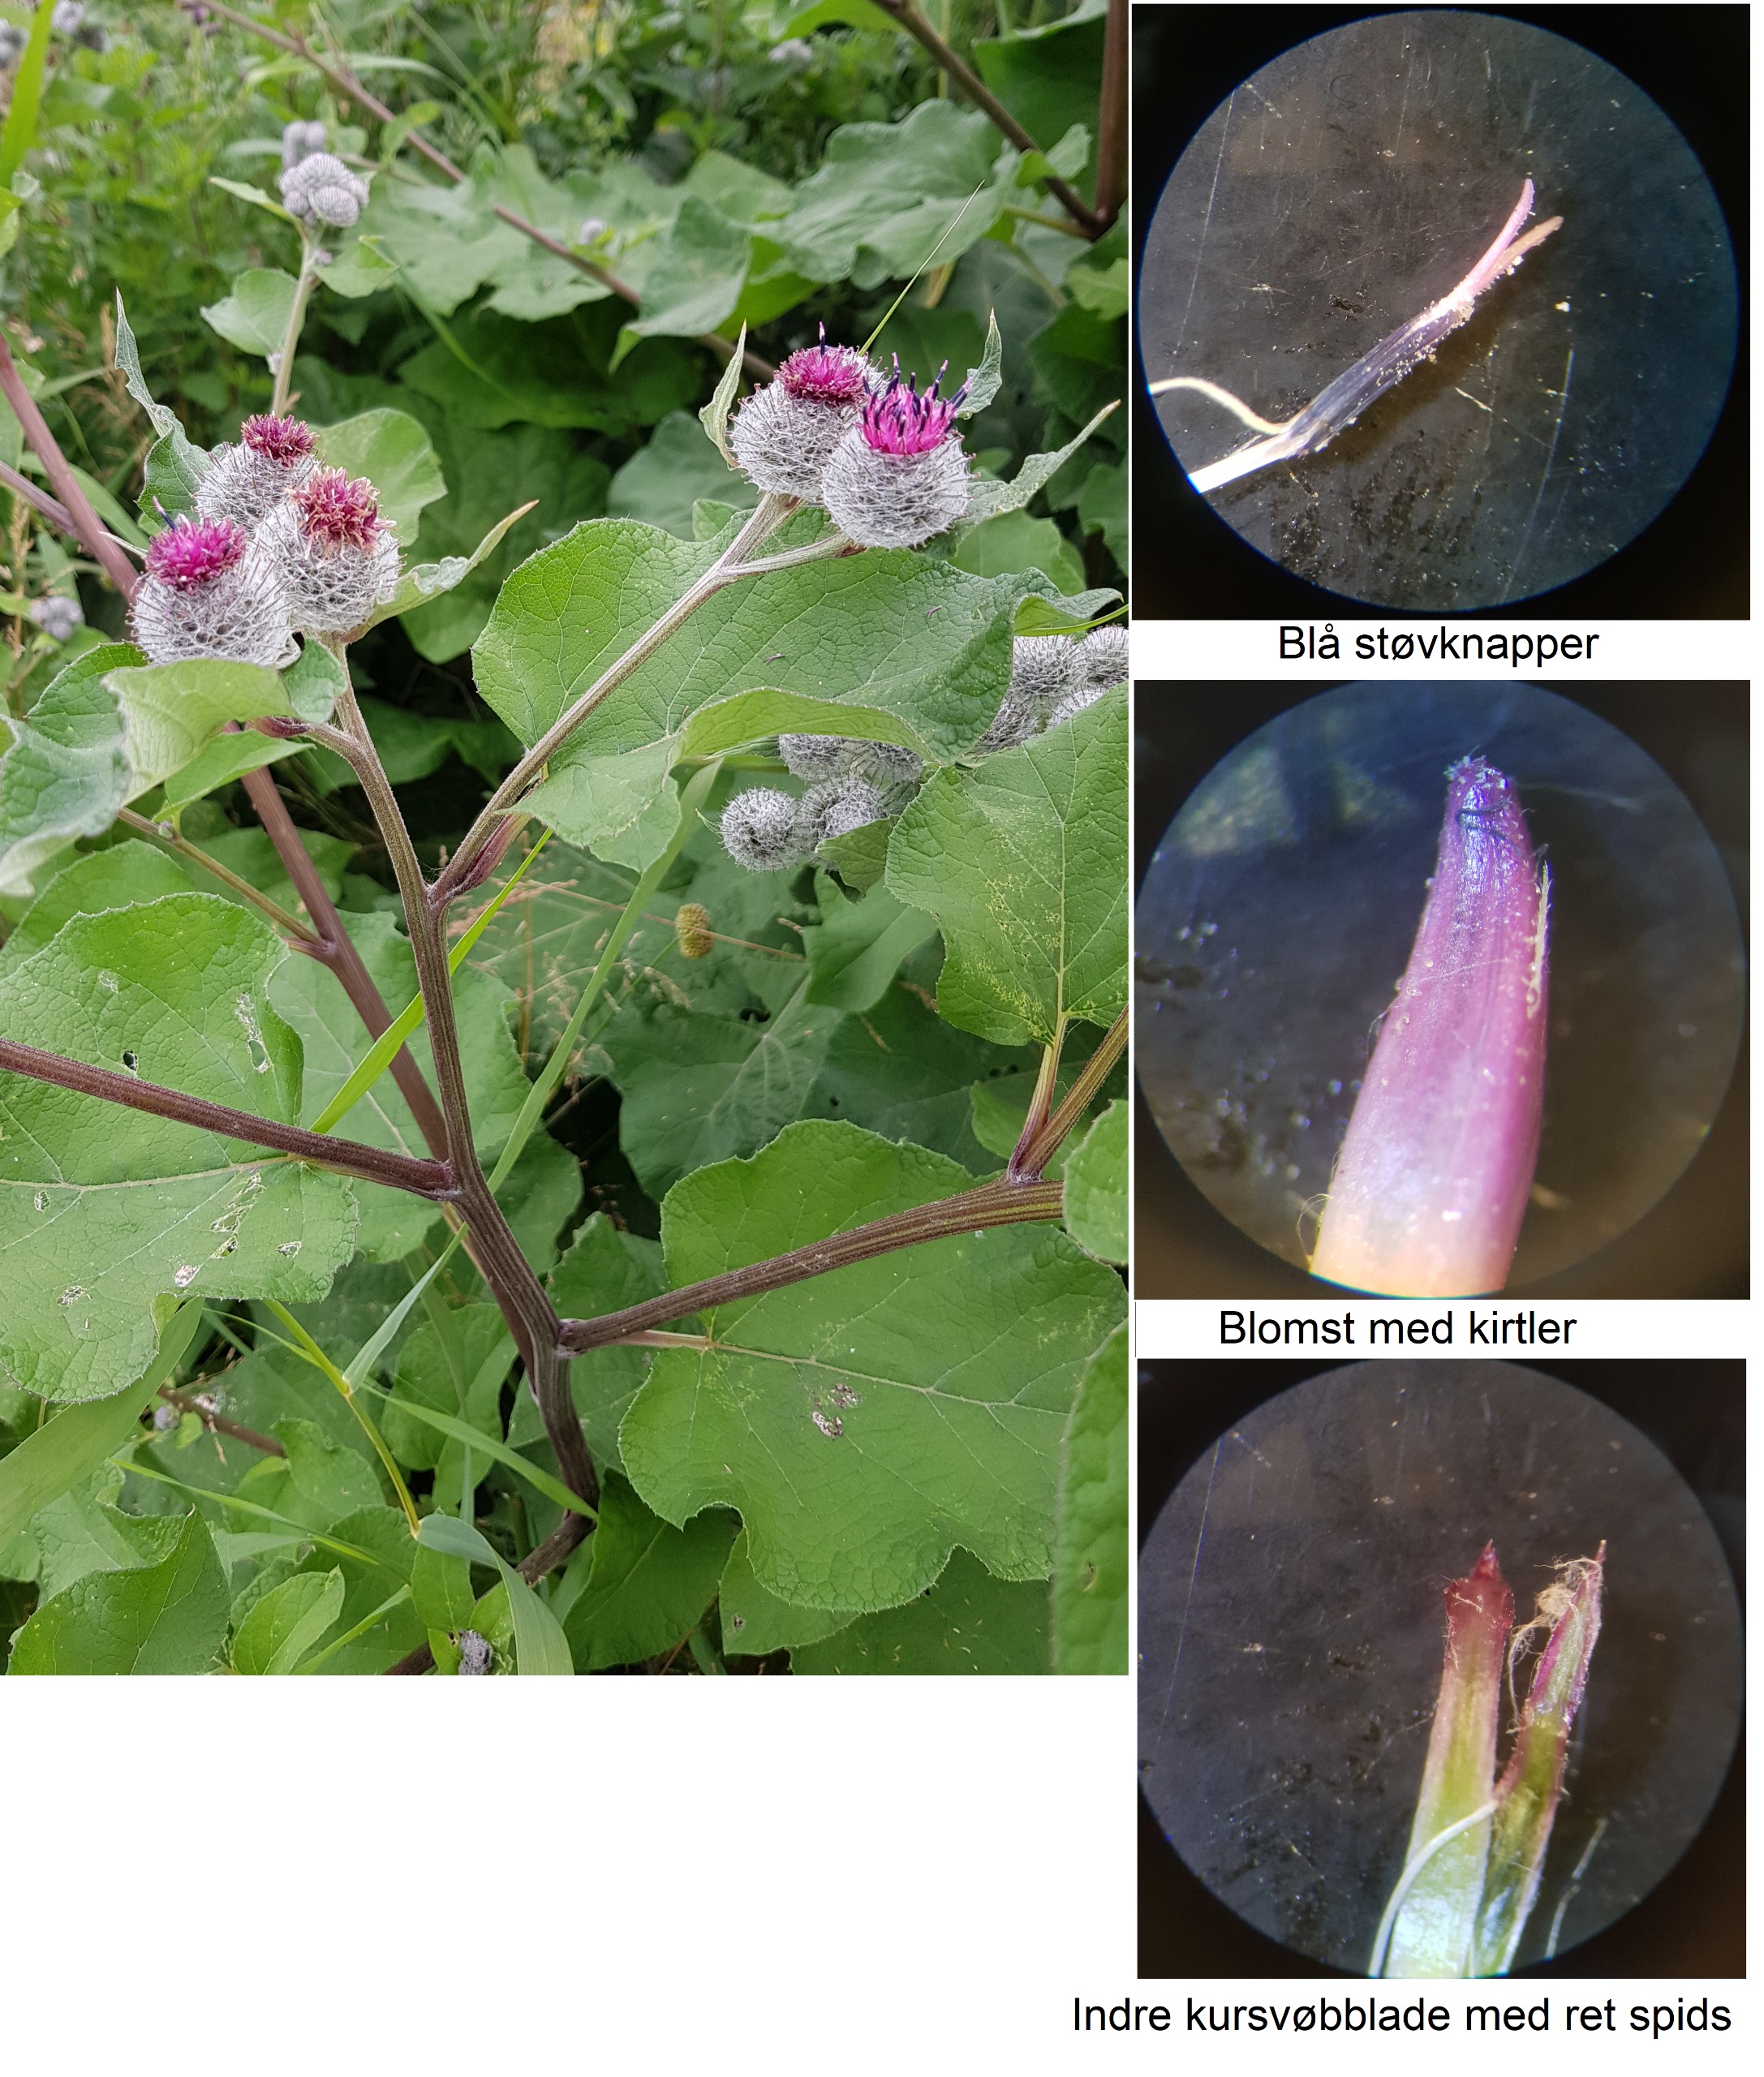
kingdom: Plantae
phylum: Tracheophyta
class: Magnoliopsida
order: Asterales
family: Asteraceae
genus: Arctium
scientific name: Arctium tomentosum
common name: Filtet burre
